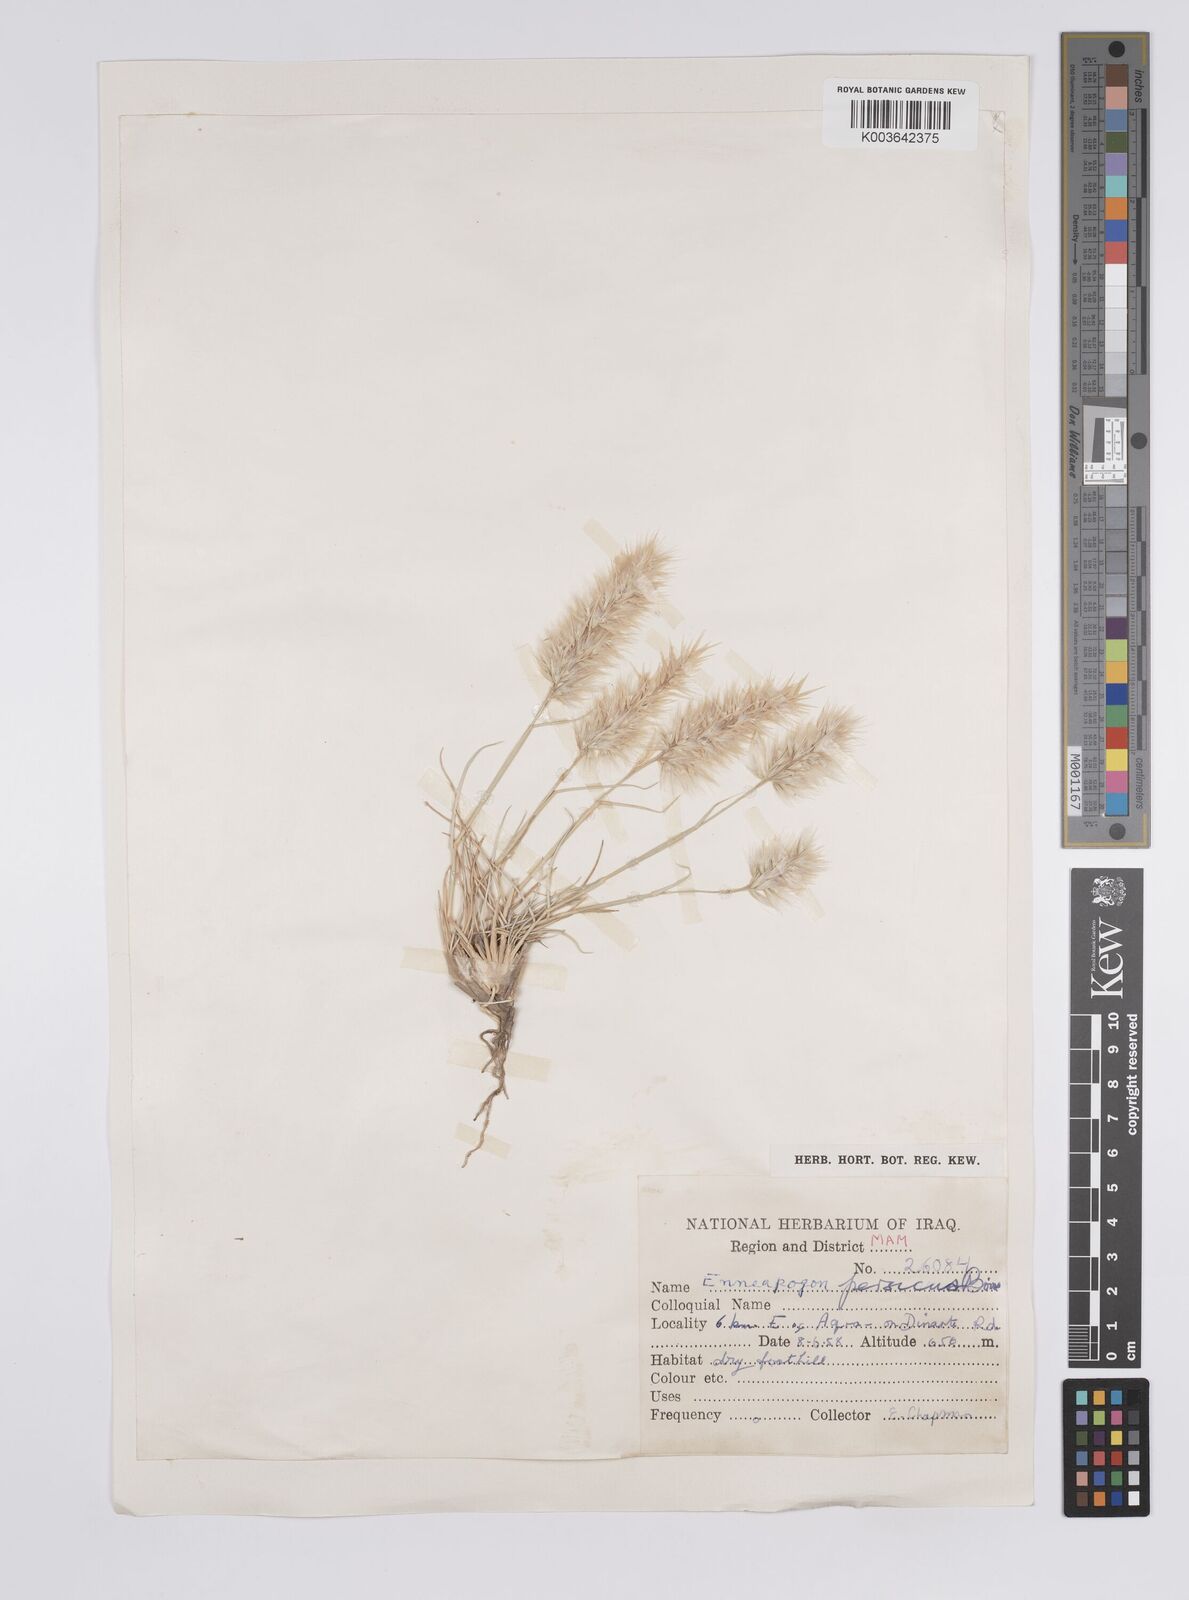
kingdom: Plantae
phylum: Tracheophyta
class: Liliopsida
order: Poales
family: Poaceae
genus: Enneapogon
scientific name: Enneapogon persicus
